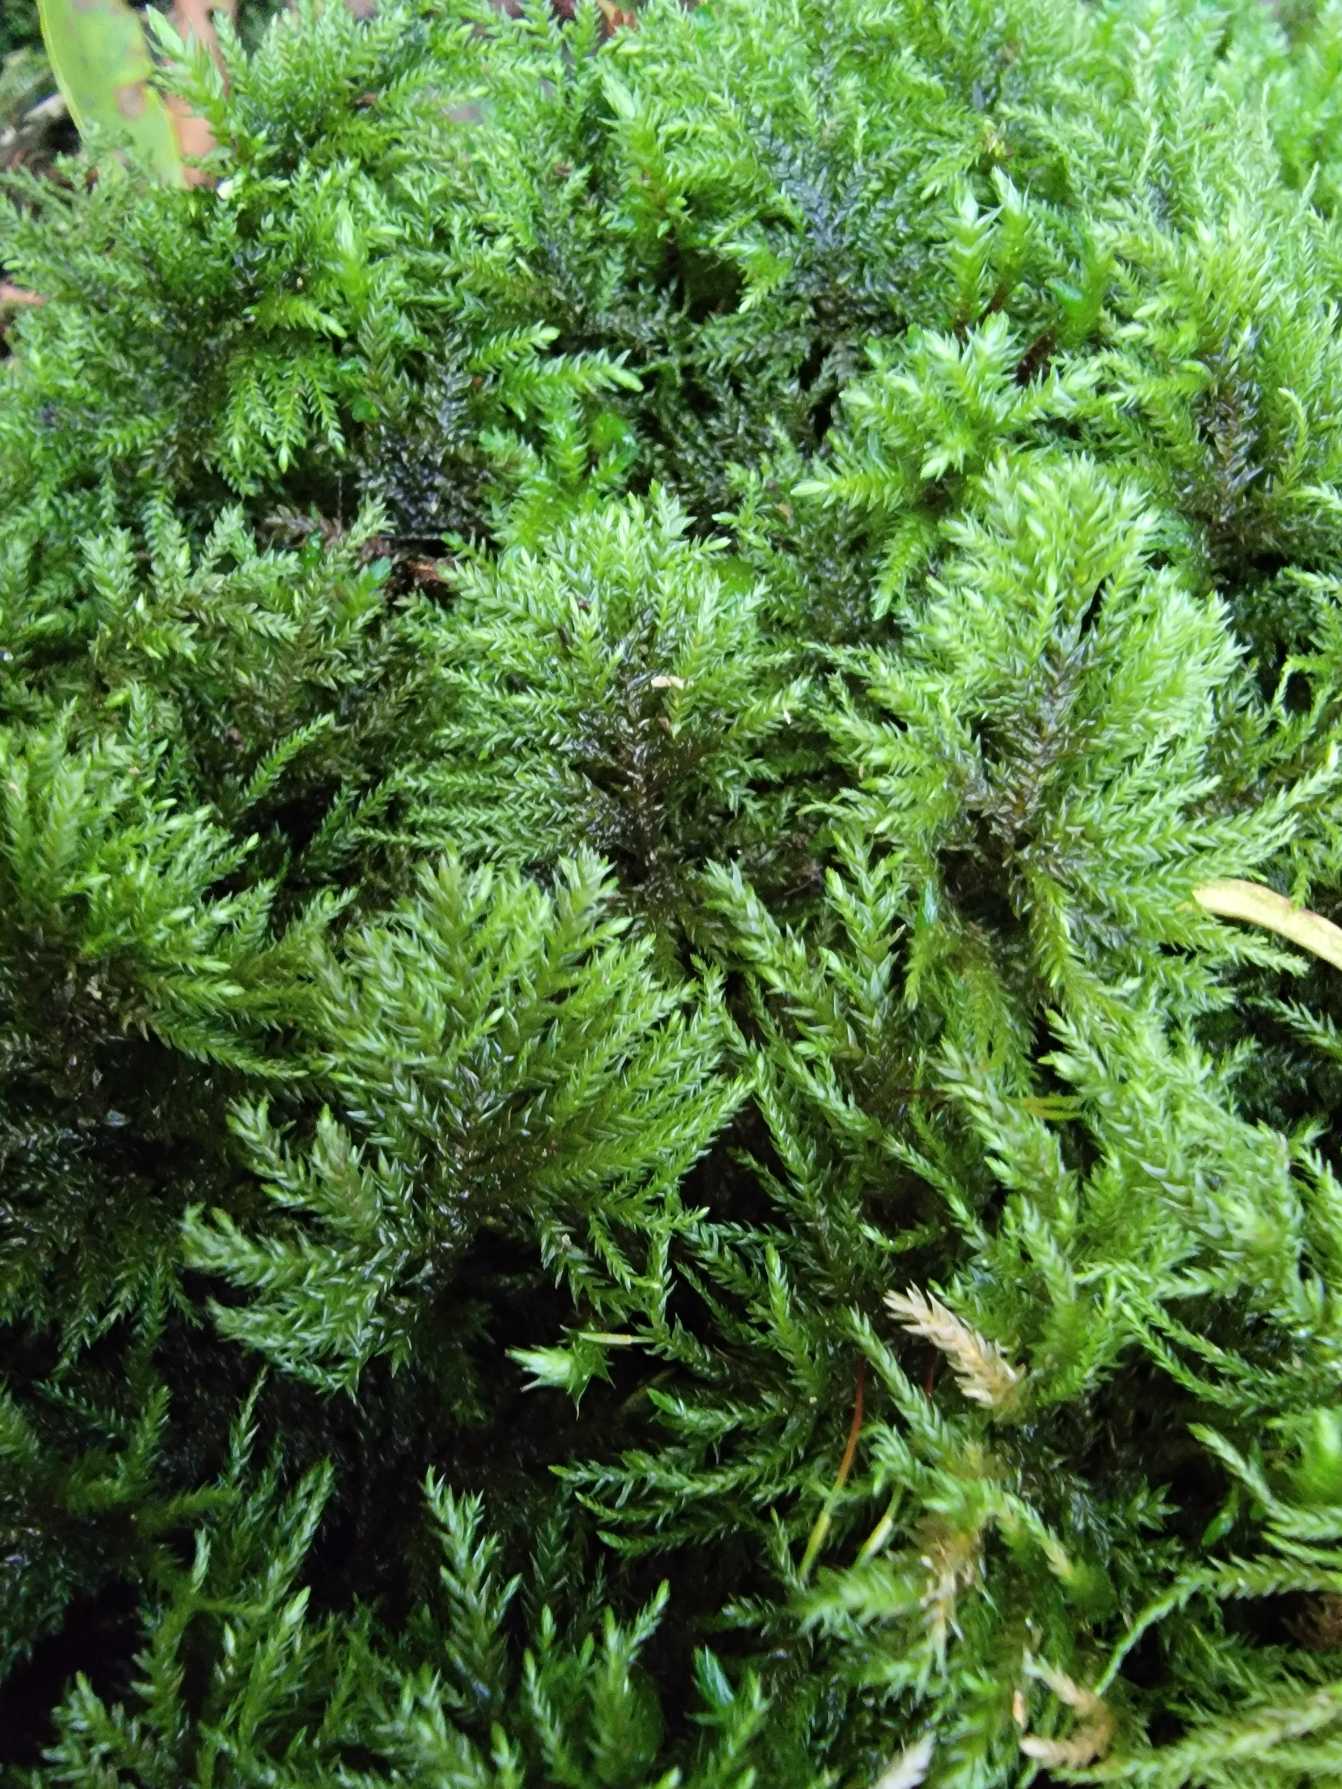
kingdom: Plantae
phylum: Bryophyta
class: Bryopsida
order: Hypnales
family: Neckeraceae
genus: Thamnobryum
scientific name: Thamnobryum alopecurum
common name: Mat bækkost
